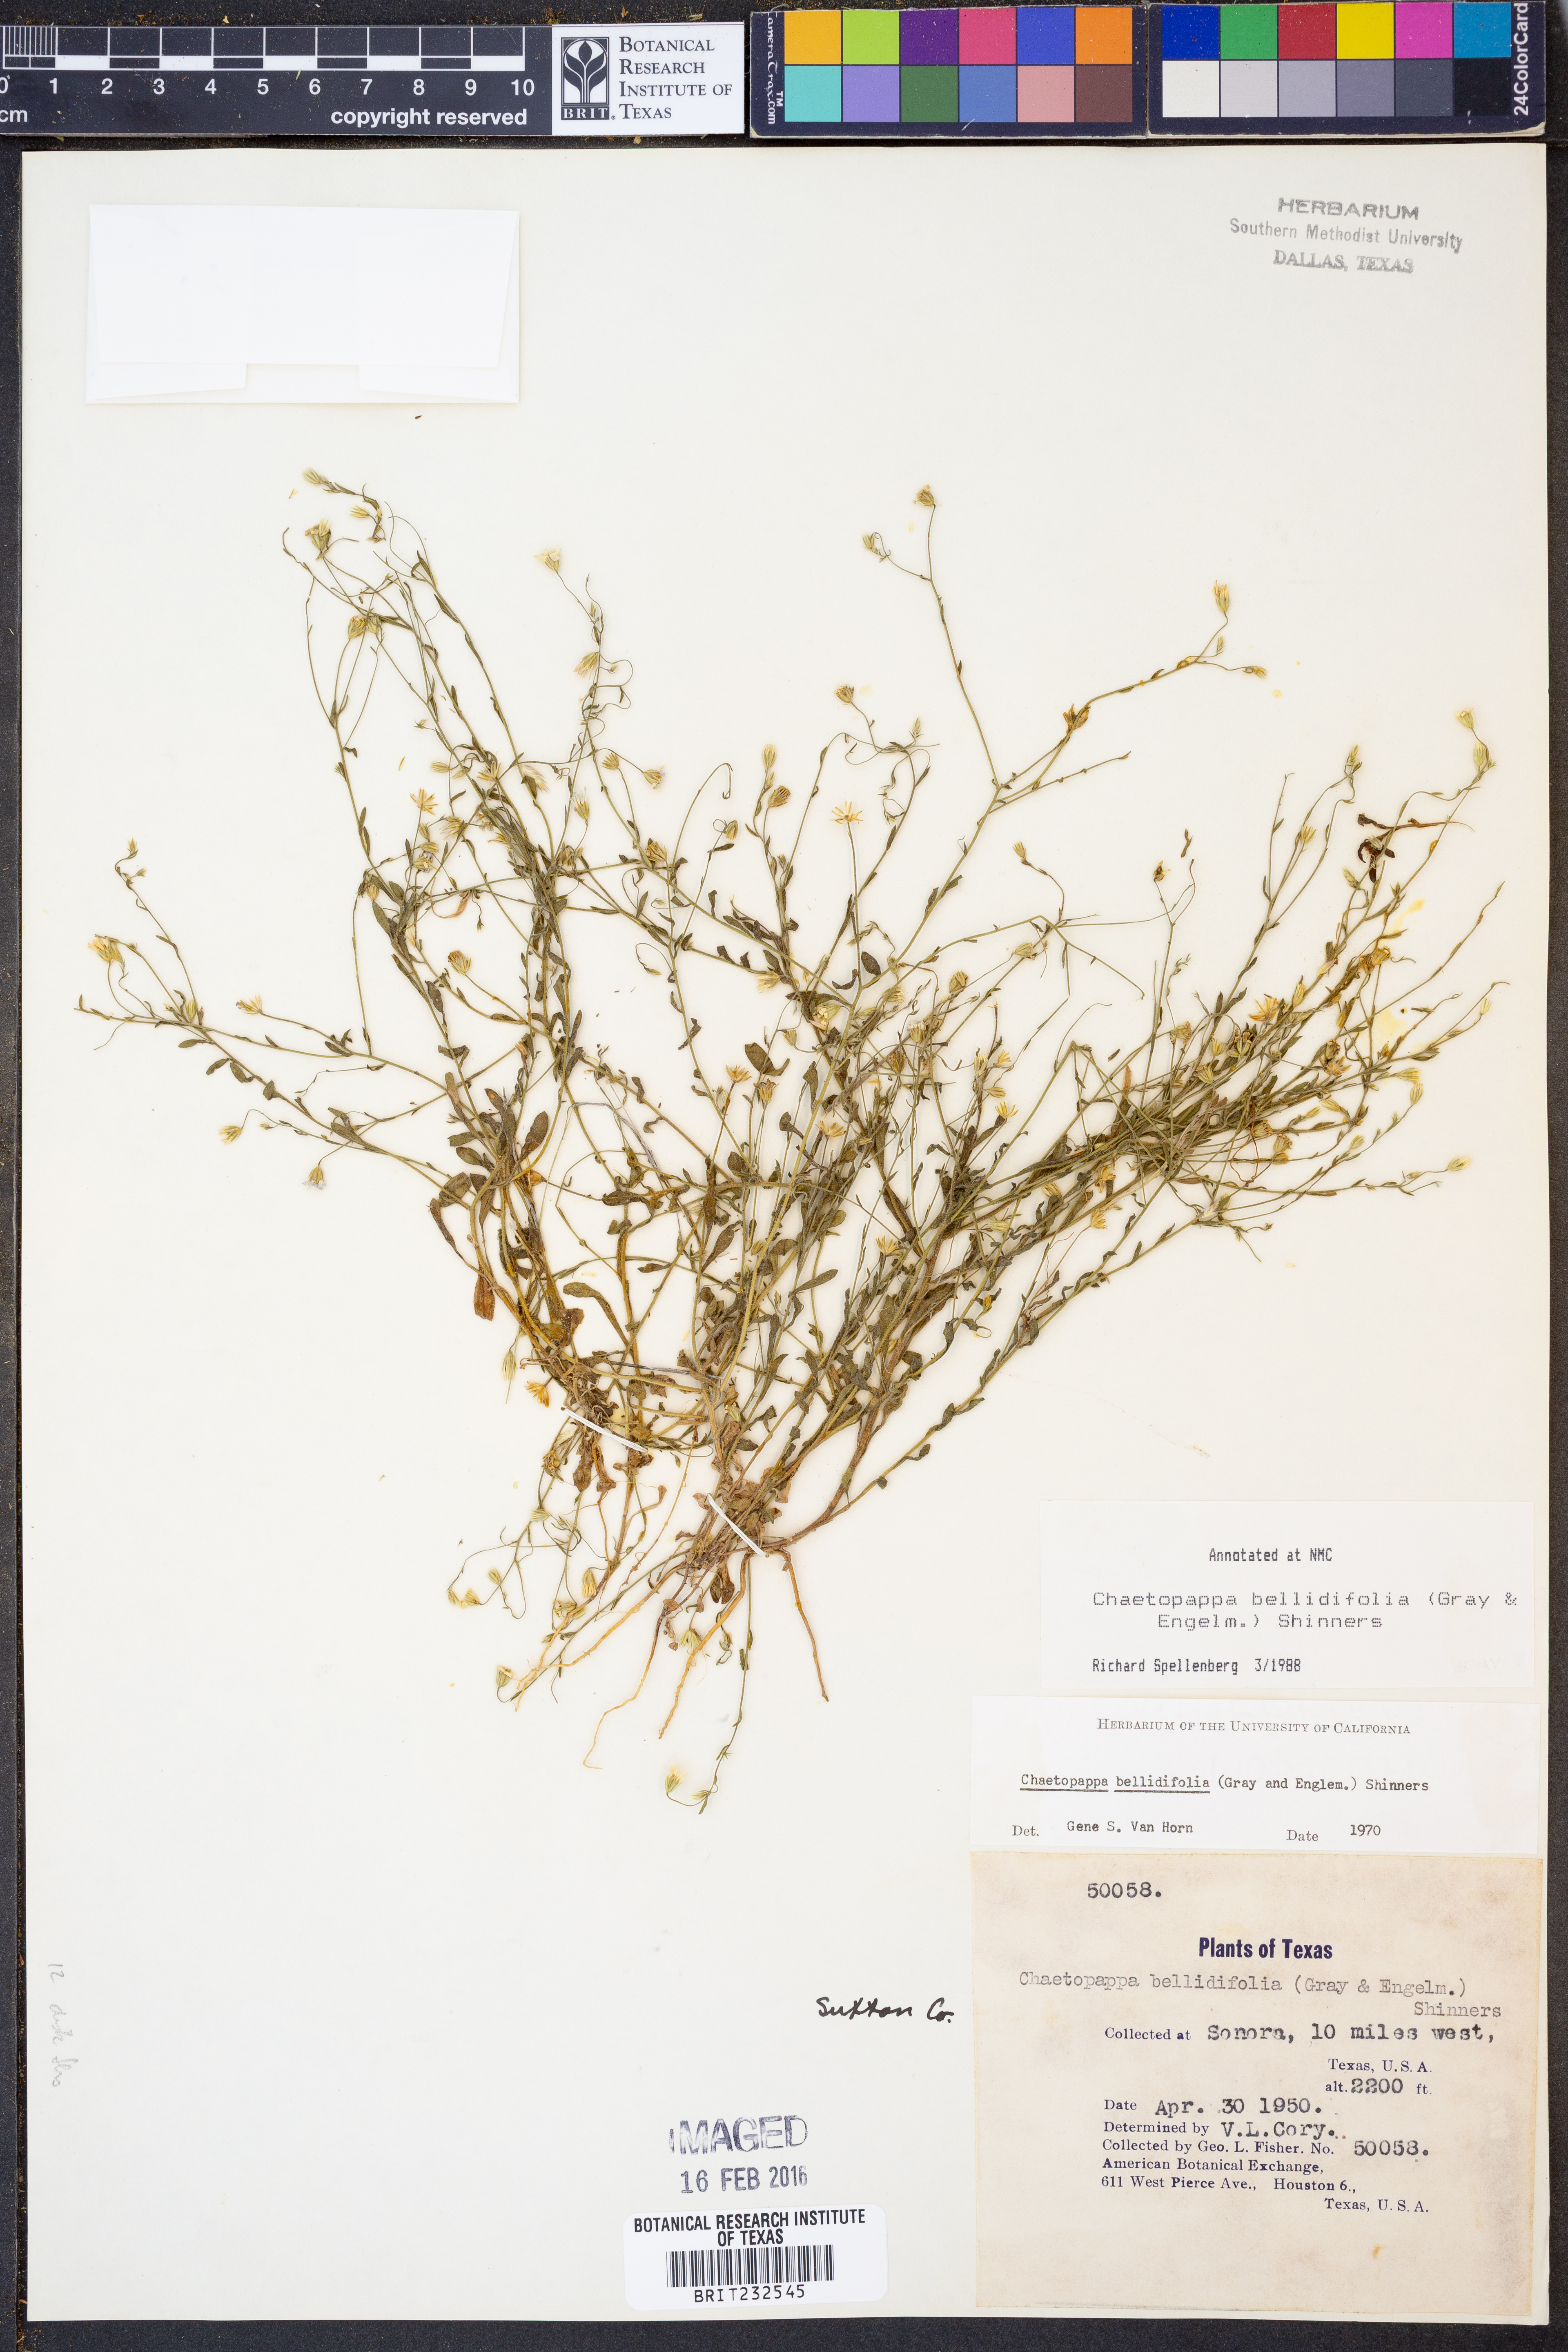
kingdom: Plantae
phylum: Tracheophyta
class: Magnoliopsida
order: Asterales
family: Asteraceae
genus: Chaetopappa
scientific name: Chaetopappa bellidifolia
